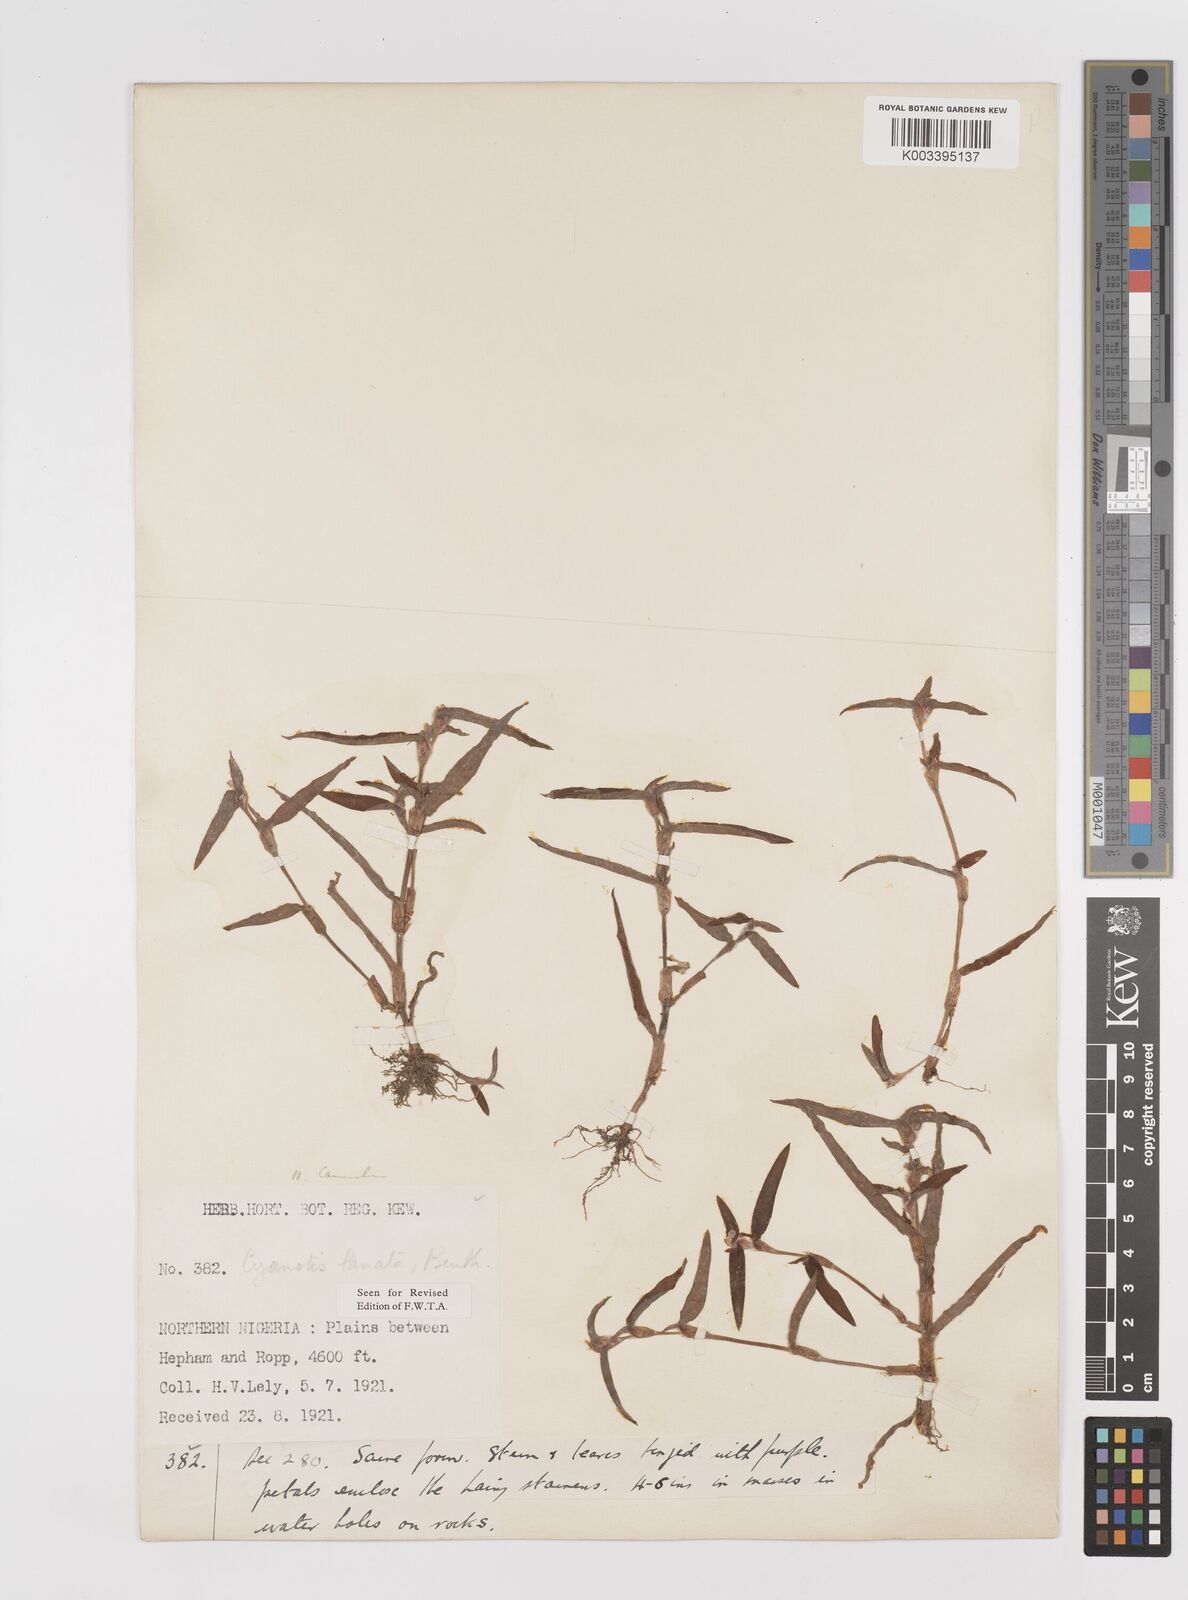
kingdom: Plantae
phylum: Tracheophyta
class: Liliopsida
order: Commelinales
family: Commelinaceae
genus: Cyanotis
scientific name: Cyanotis lanata
